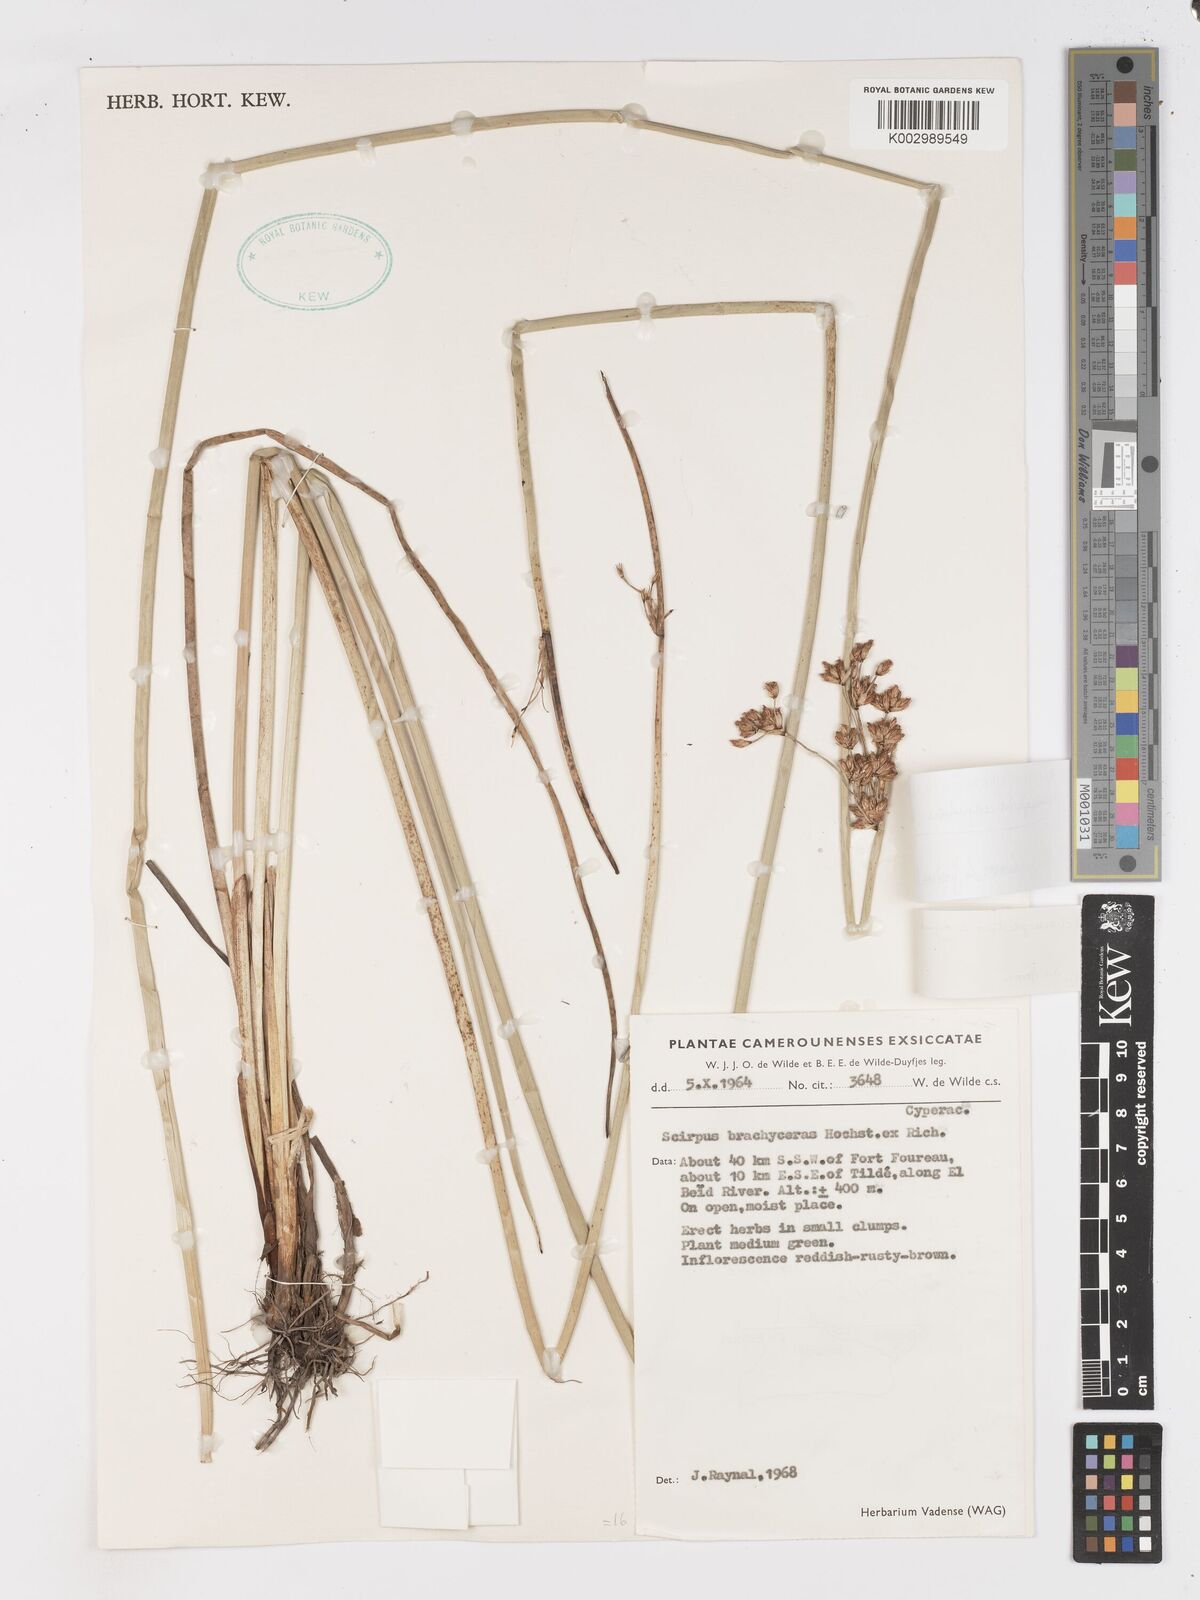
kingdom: Plantae
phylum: Tracheophyta
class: Liliopsida
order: Poales
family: Cyperaceae
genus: Schoenoplectiella
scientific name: Schoenoplectiella corymbosa
